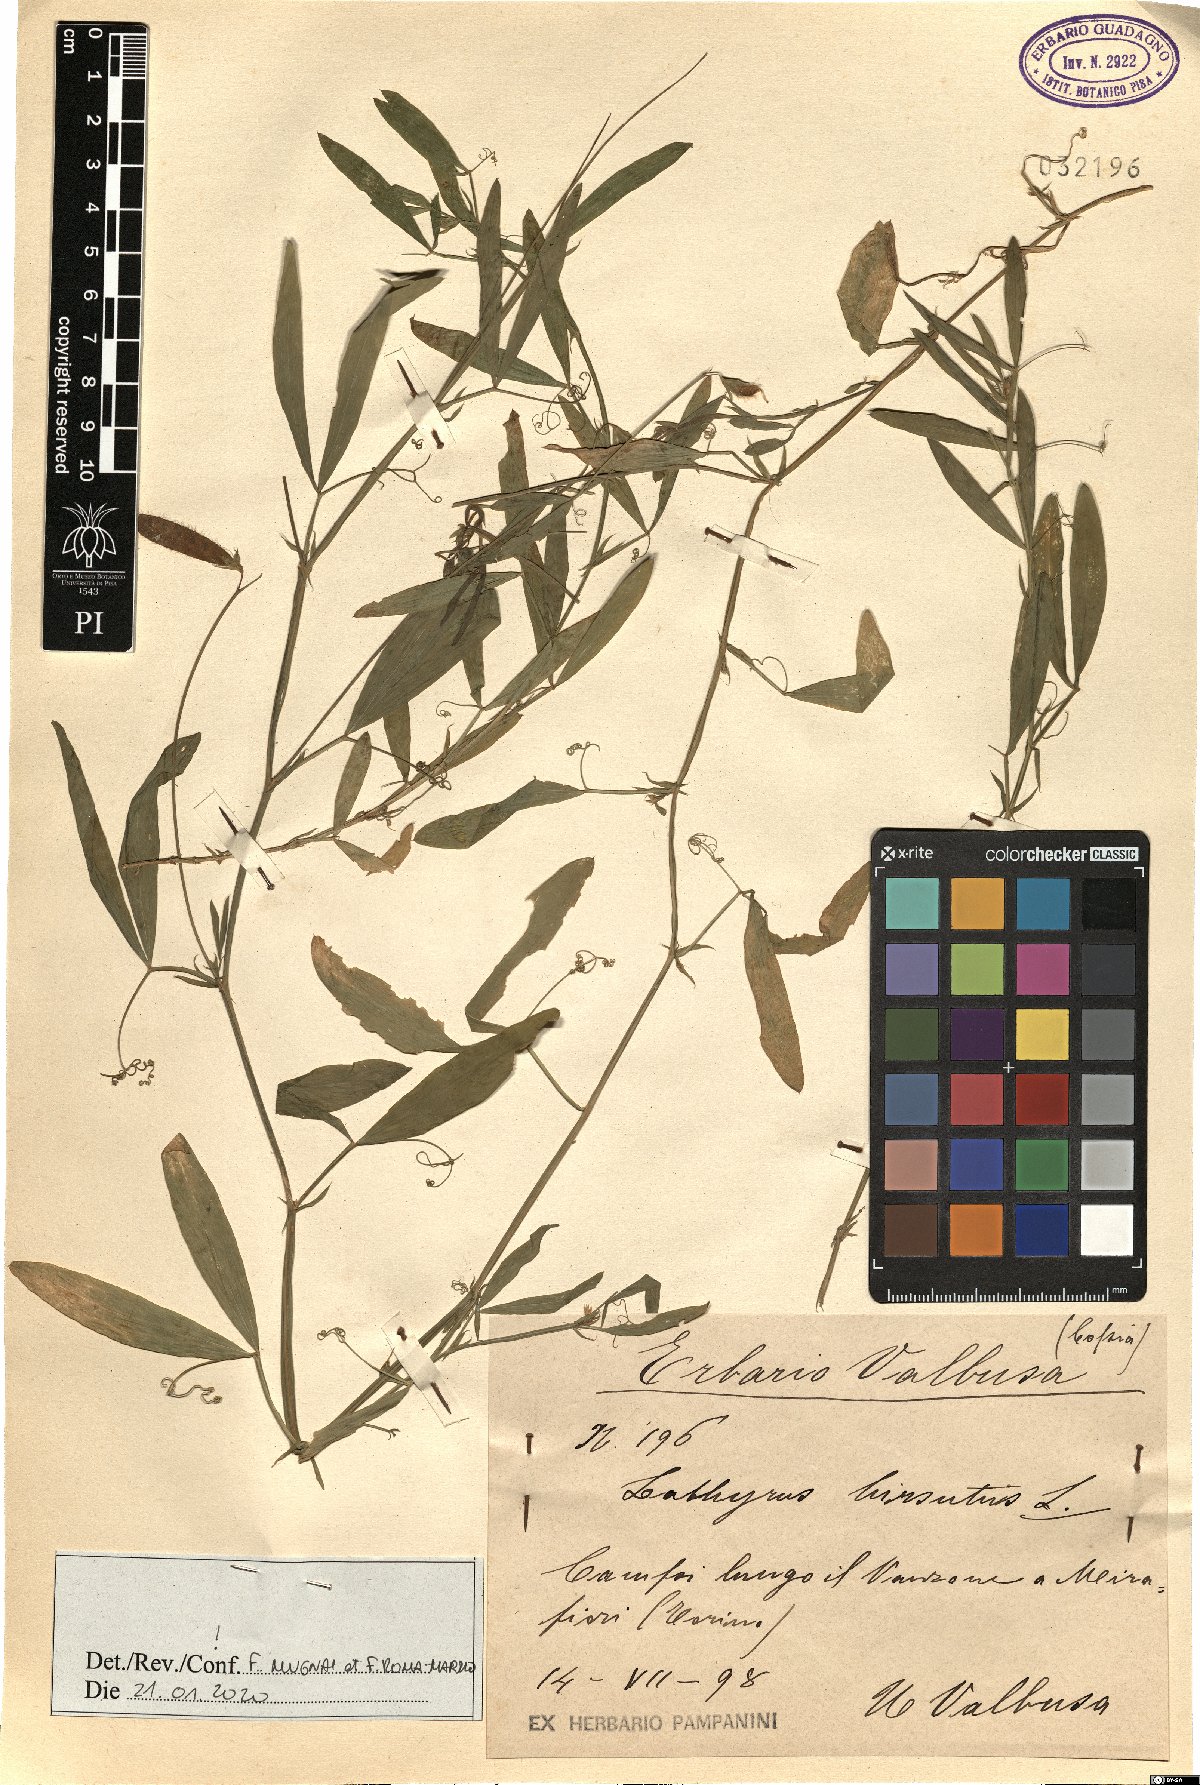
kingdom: Plantae
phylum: Tracheophyta
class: Magnoliopsida
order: Fabales
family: Fabaceae
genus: Lathyrus
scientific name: Lathyrus hirsutus
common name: Hairy vetchling
